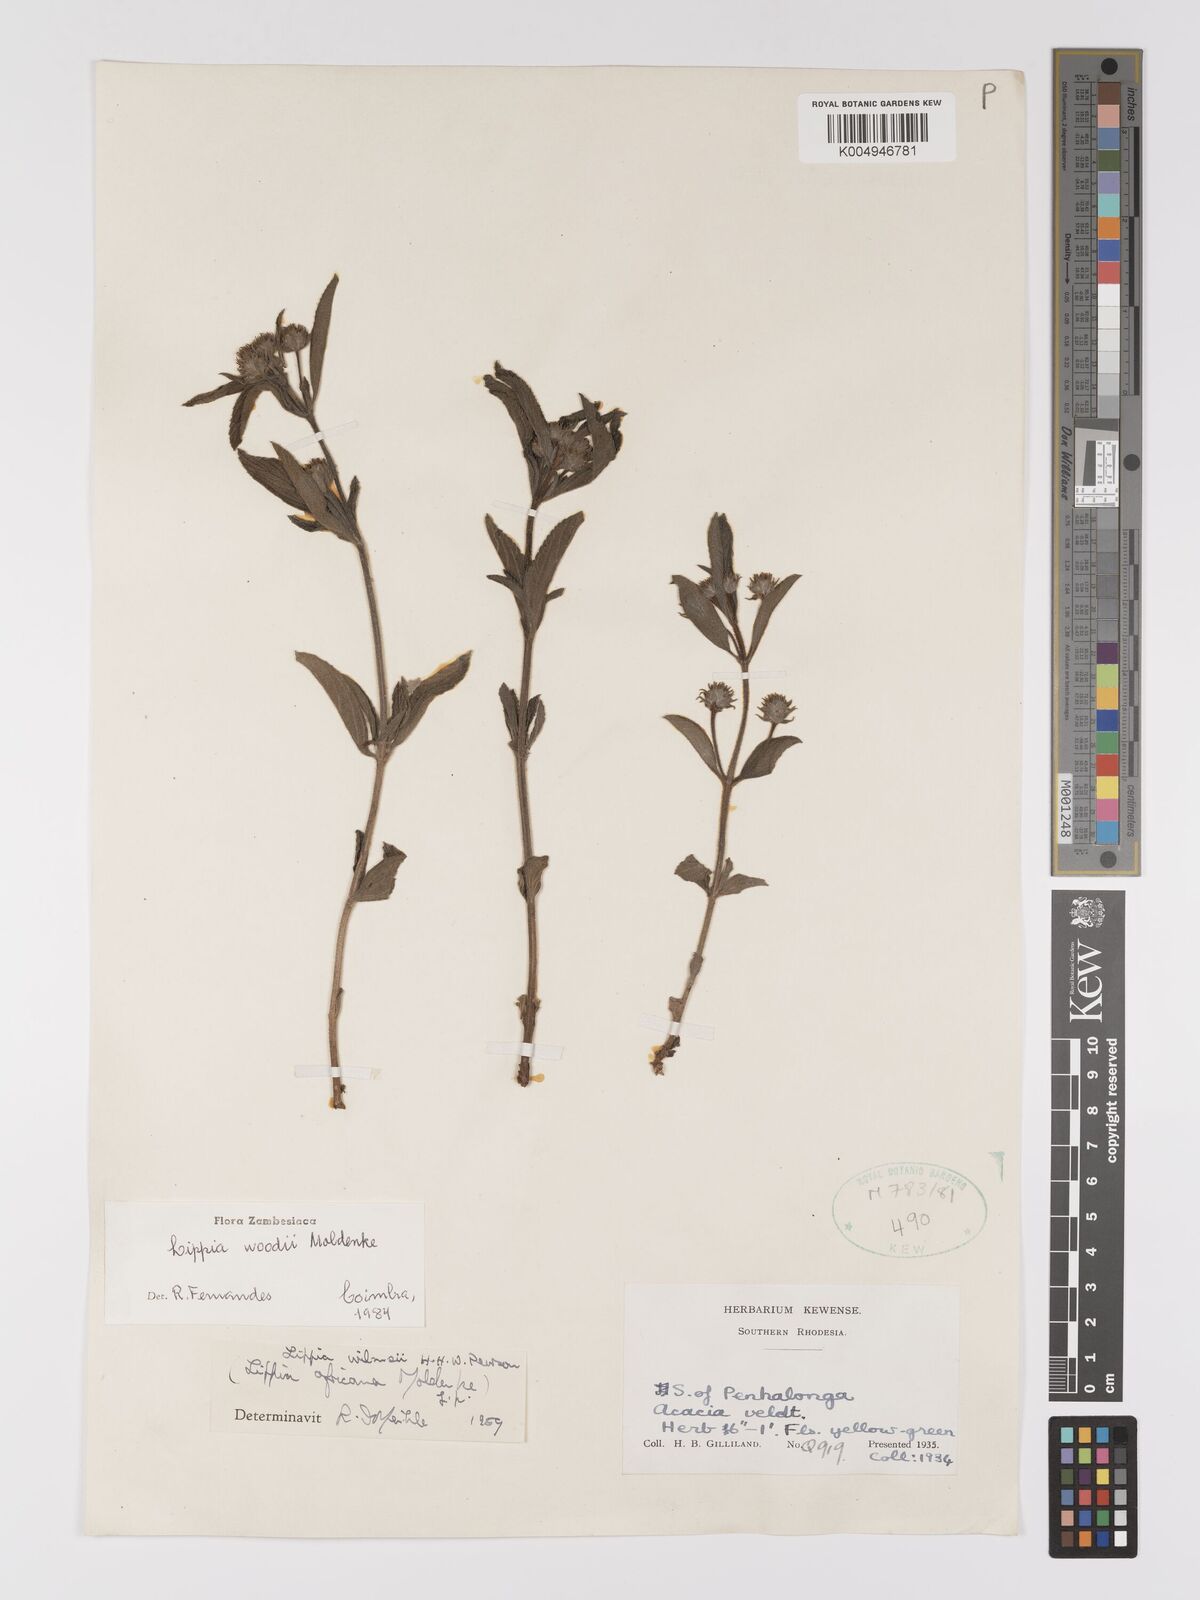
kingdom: Plantae
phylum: Tracheophyta
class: Magnoliopsida
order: Lamiales
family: Verbenaceae
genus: Lippia
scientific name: Lippia woodii
